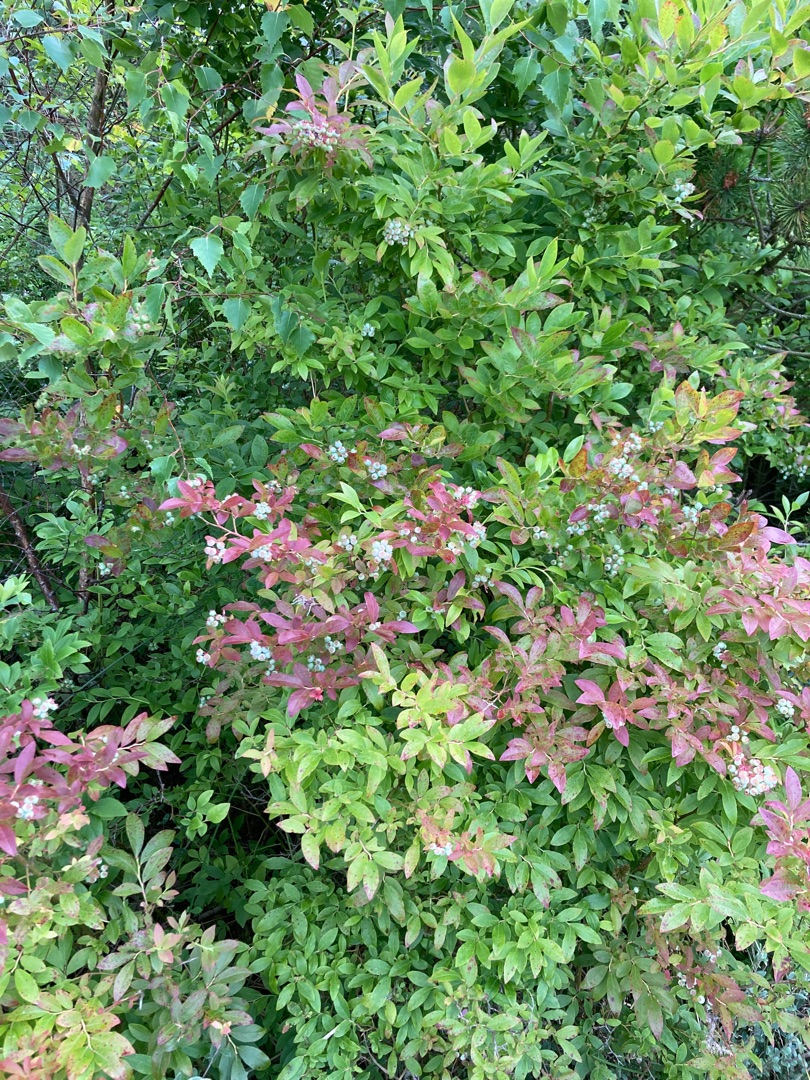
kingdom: Plantae
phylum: Tracheophyta
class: Magnoliopsida
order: Ericales
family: Ericaceae
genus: Vaccinium
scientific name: Vaccinium corymbosum
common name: Amerikansk blåbær
